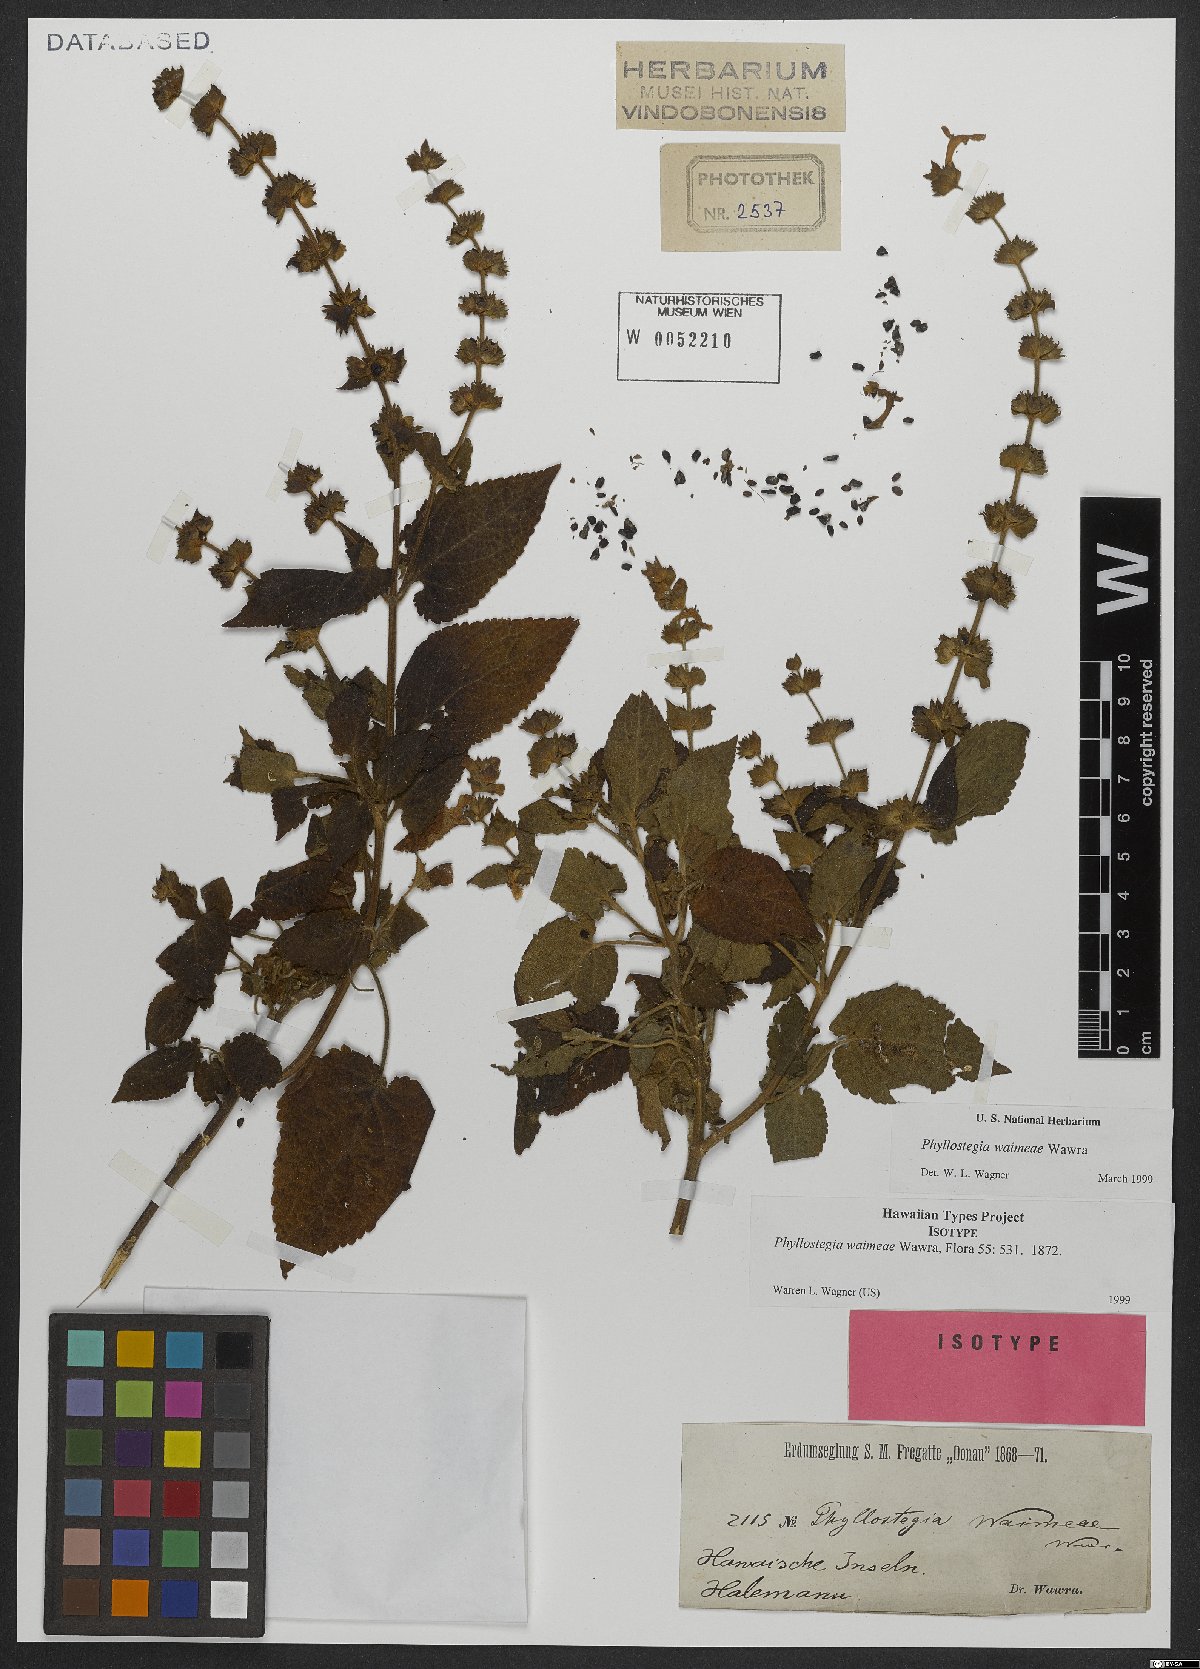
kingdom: Plantae
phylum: Tracheophyta
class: Magnoliopsida
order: Lamiales
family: Lamiaceae
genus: Phyllostegia
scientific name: Phyllostegia waimeae
